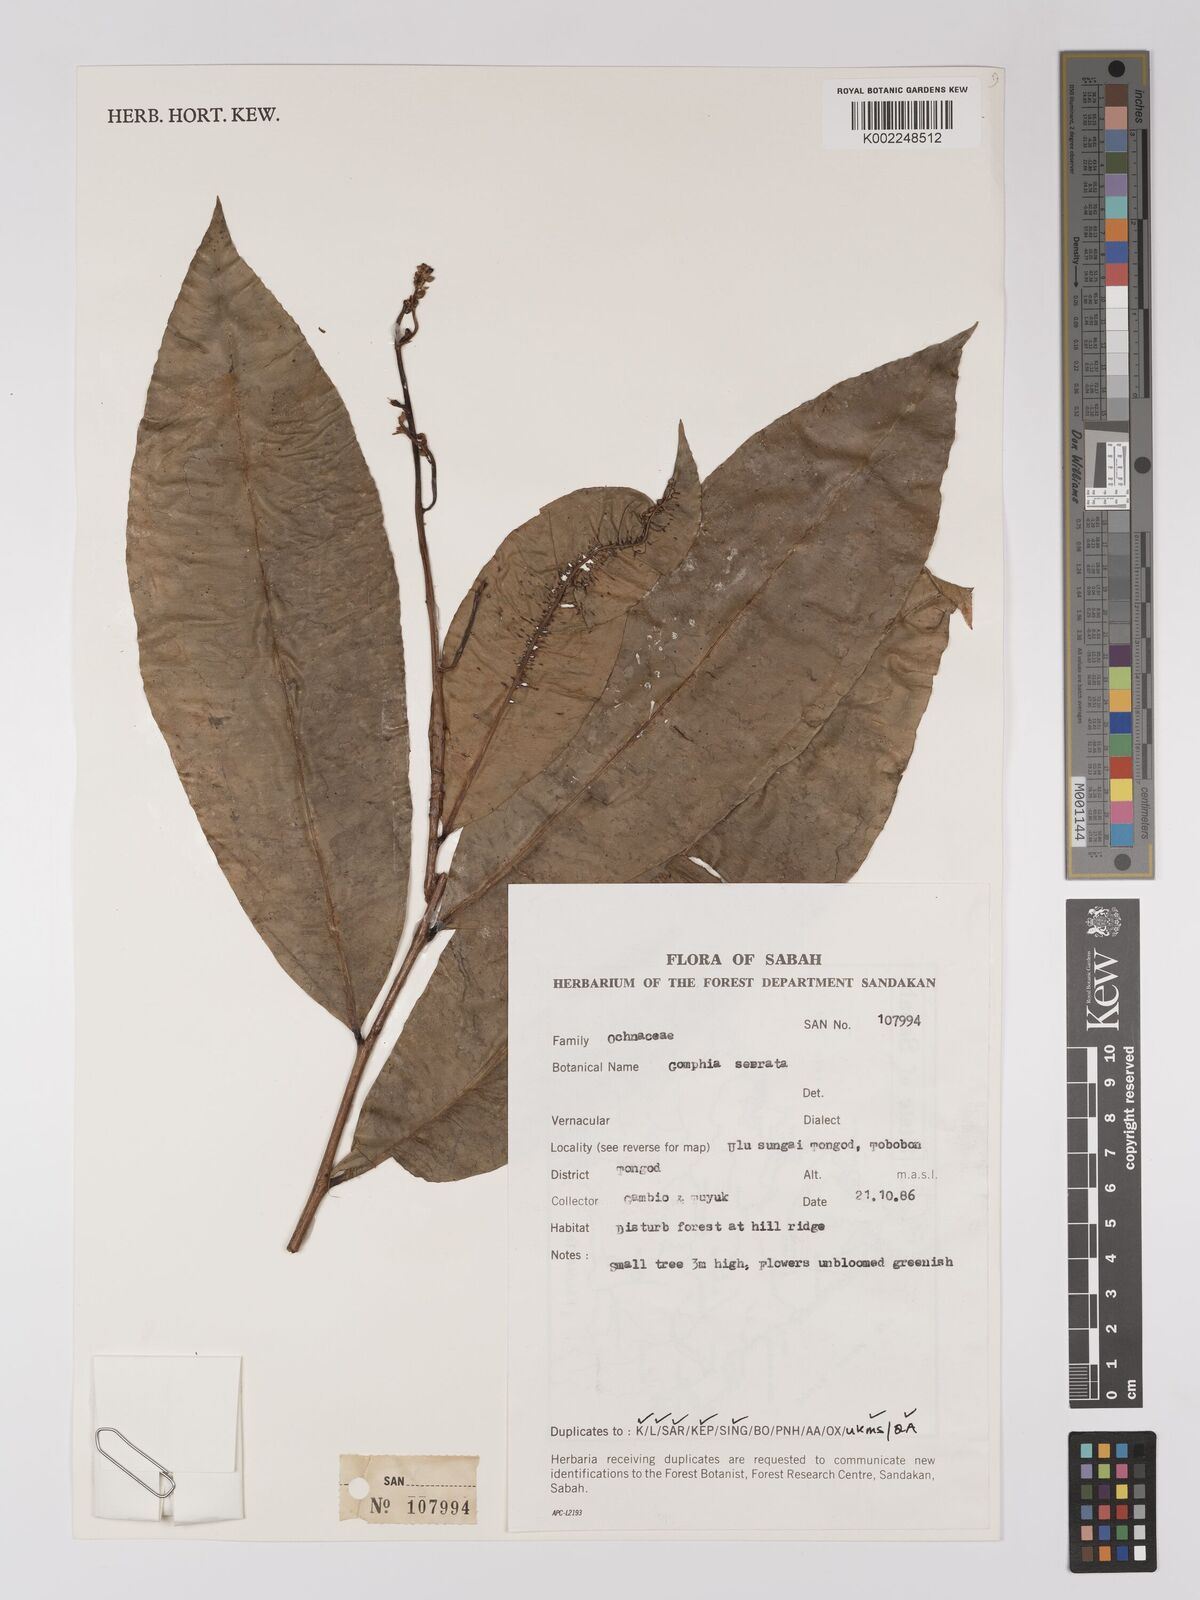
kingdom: Plantae
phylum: Tracheophyta
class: Magnoliopsida
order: Malpighiales
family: Ochnaceae
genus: Gomphia
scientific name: Gomphia serrata
